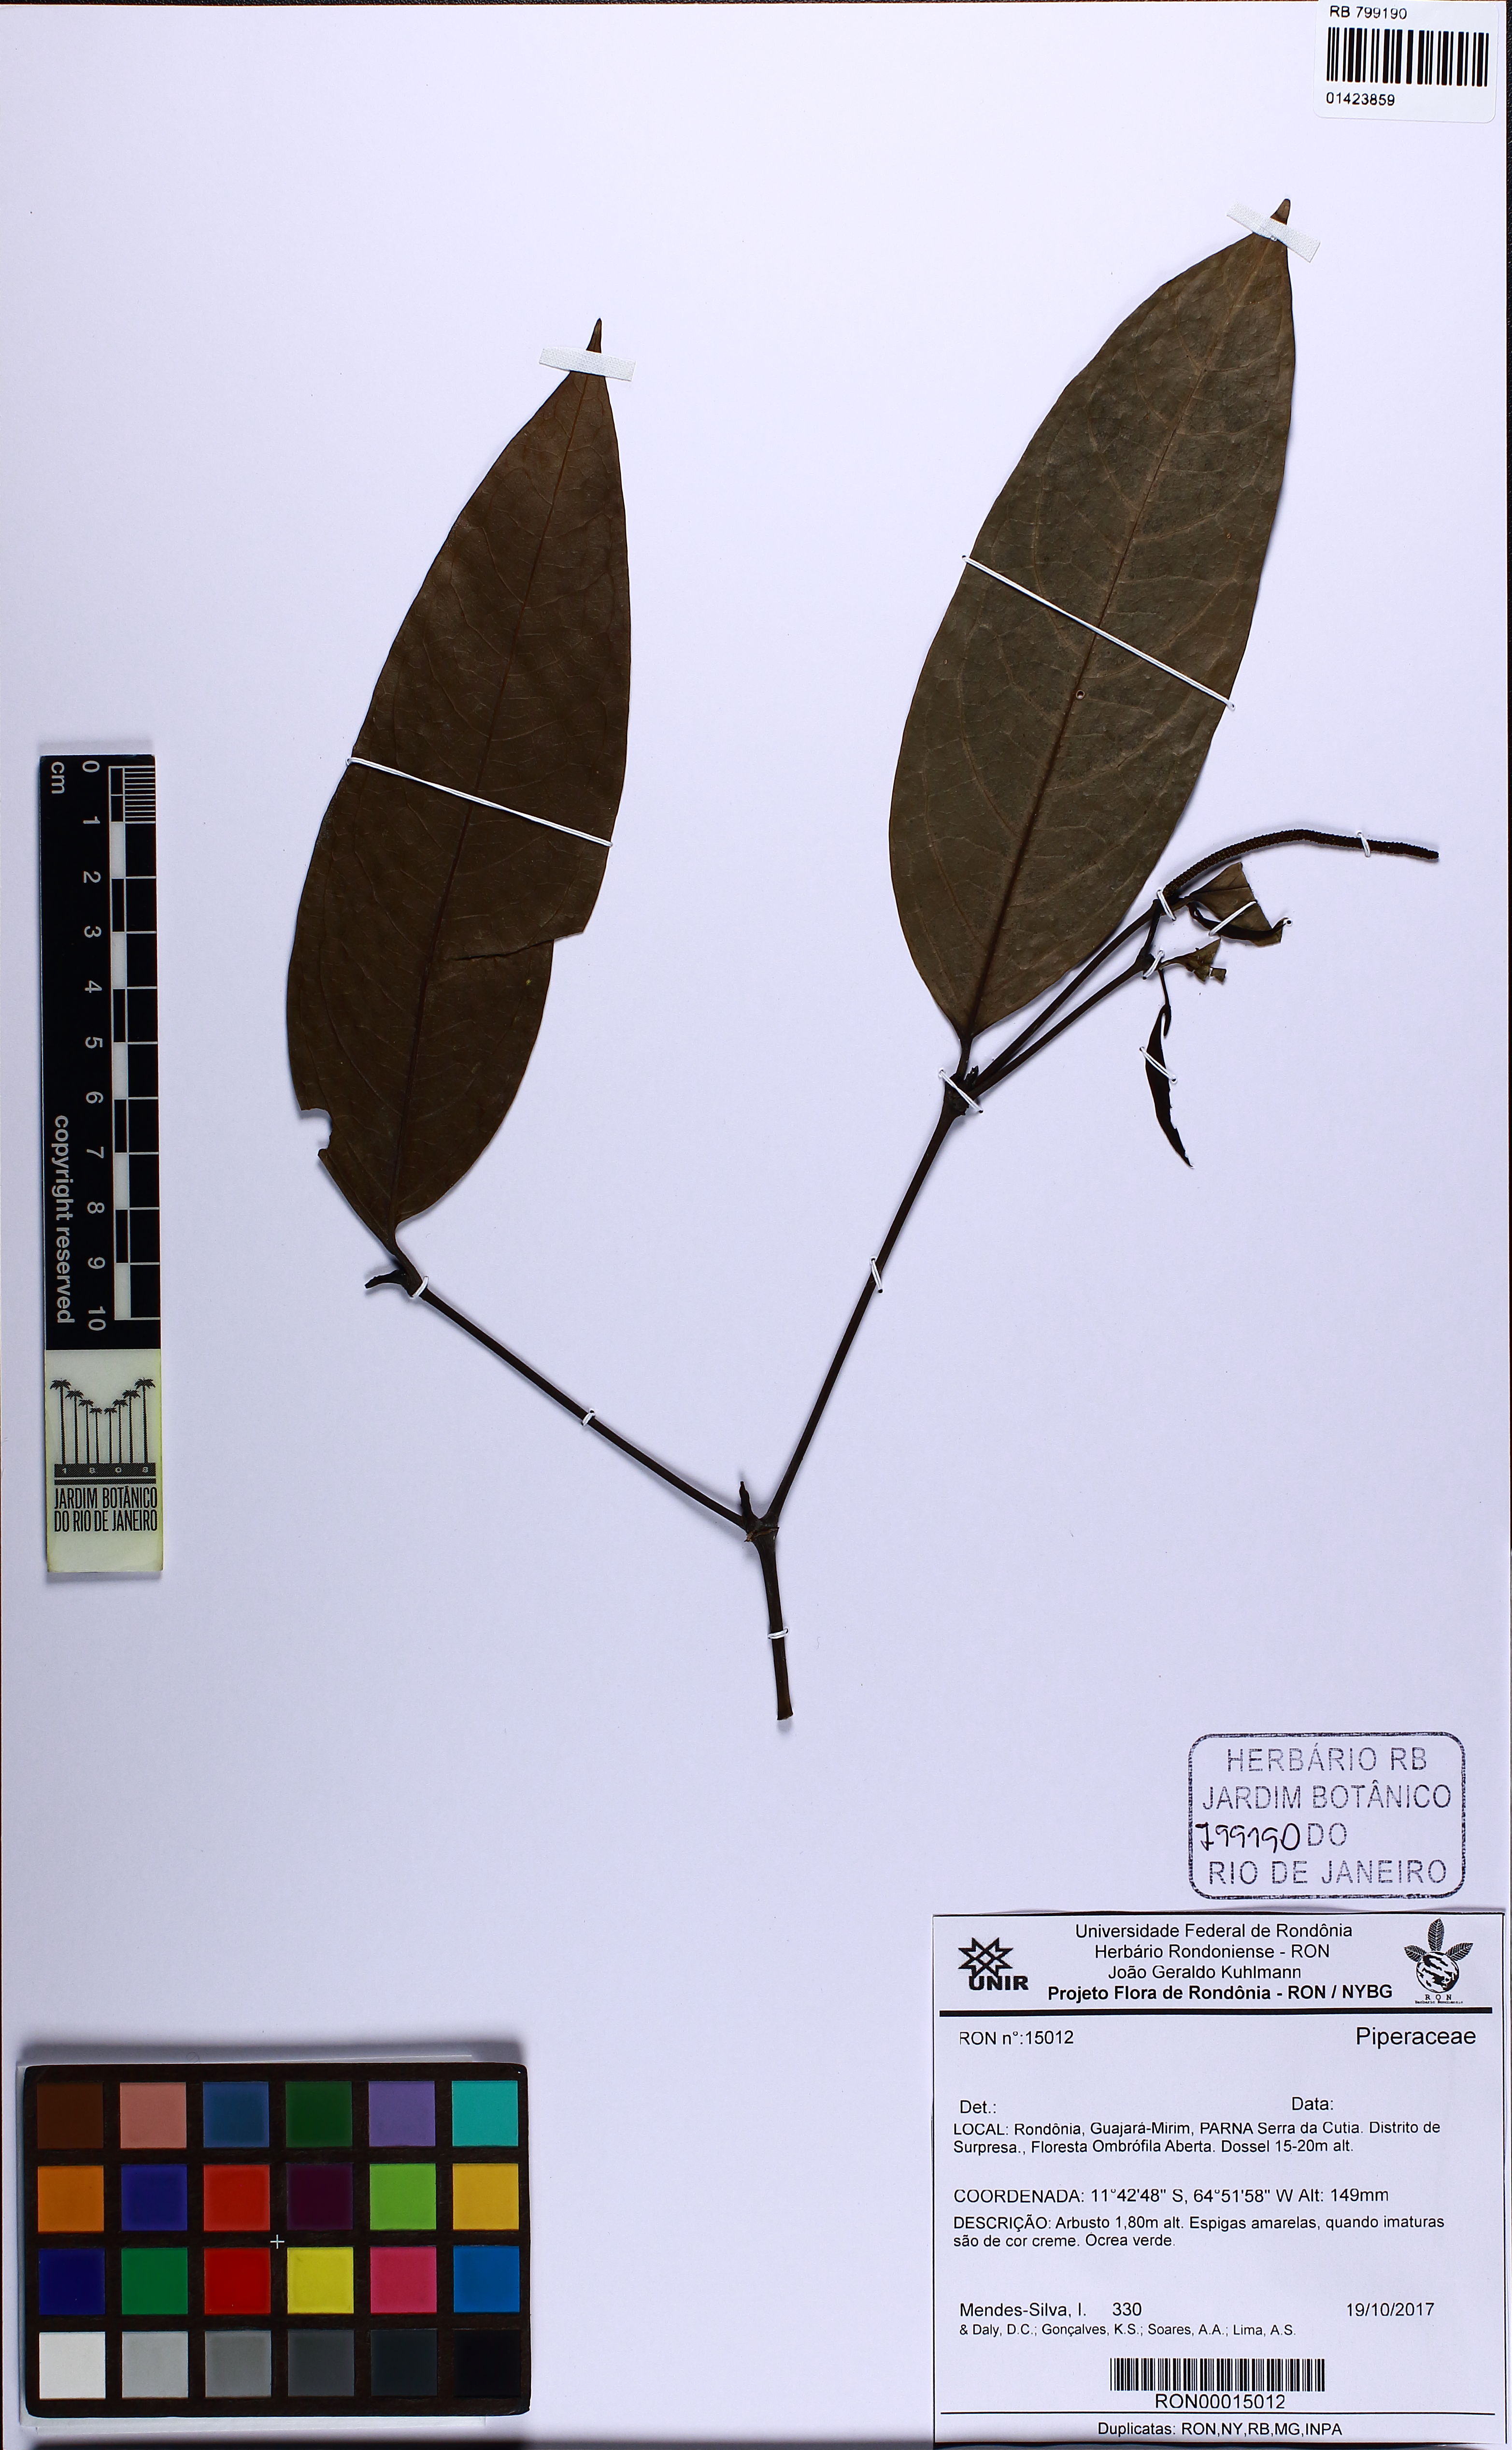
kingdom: Plantae
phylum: Tracheophyta
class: Magnoliopsida
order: Piperales
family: Piperaceae
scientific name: Piperaceae
